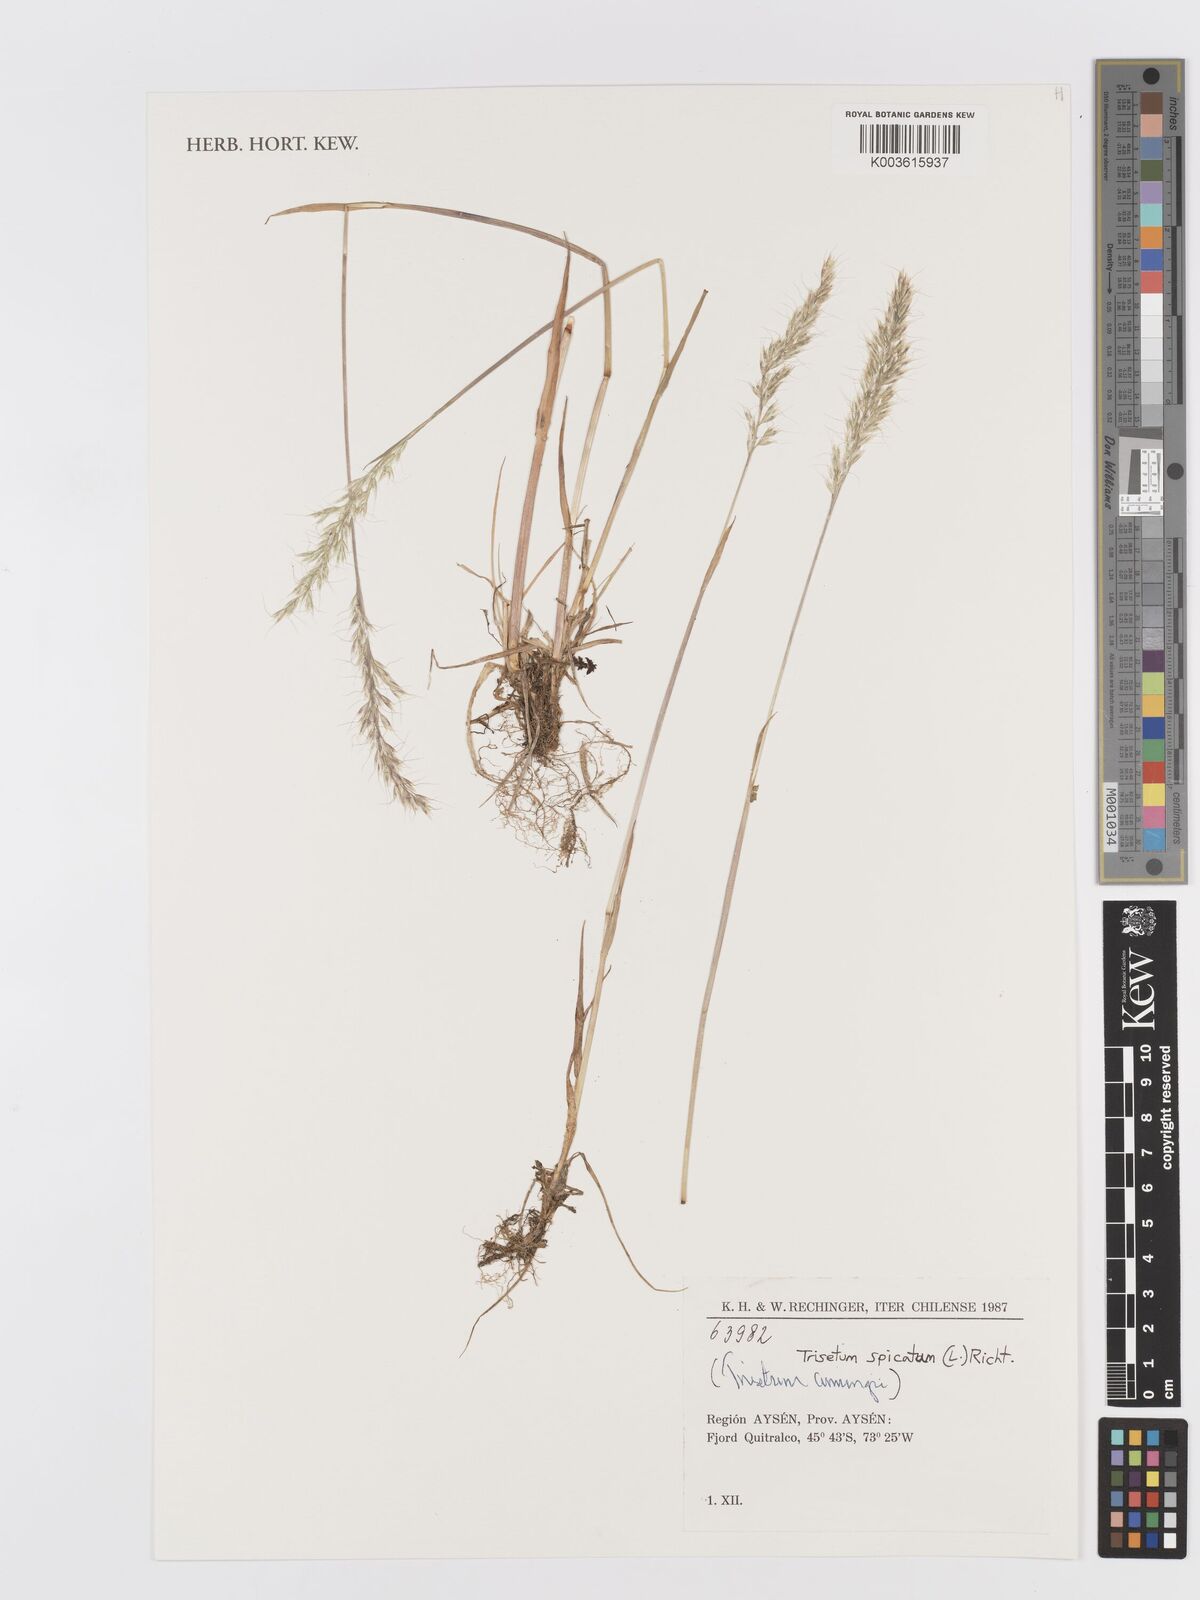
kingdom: Plantae
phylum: Tracheophyta
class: Liliopsida
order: Poales
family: Poaceae
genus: Koeleria
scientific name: Koeleria spicata
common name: Mountain trisetum
